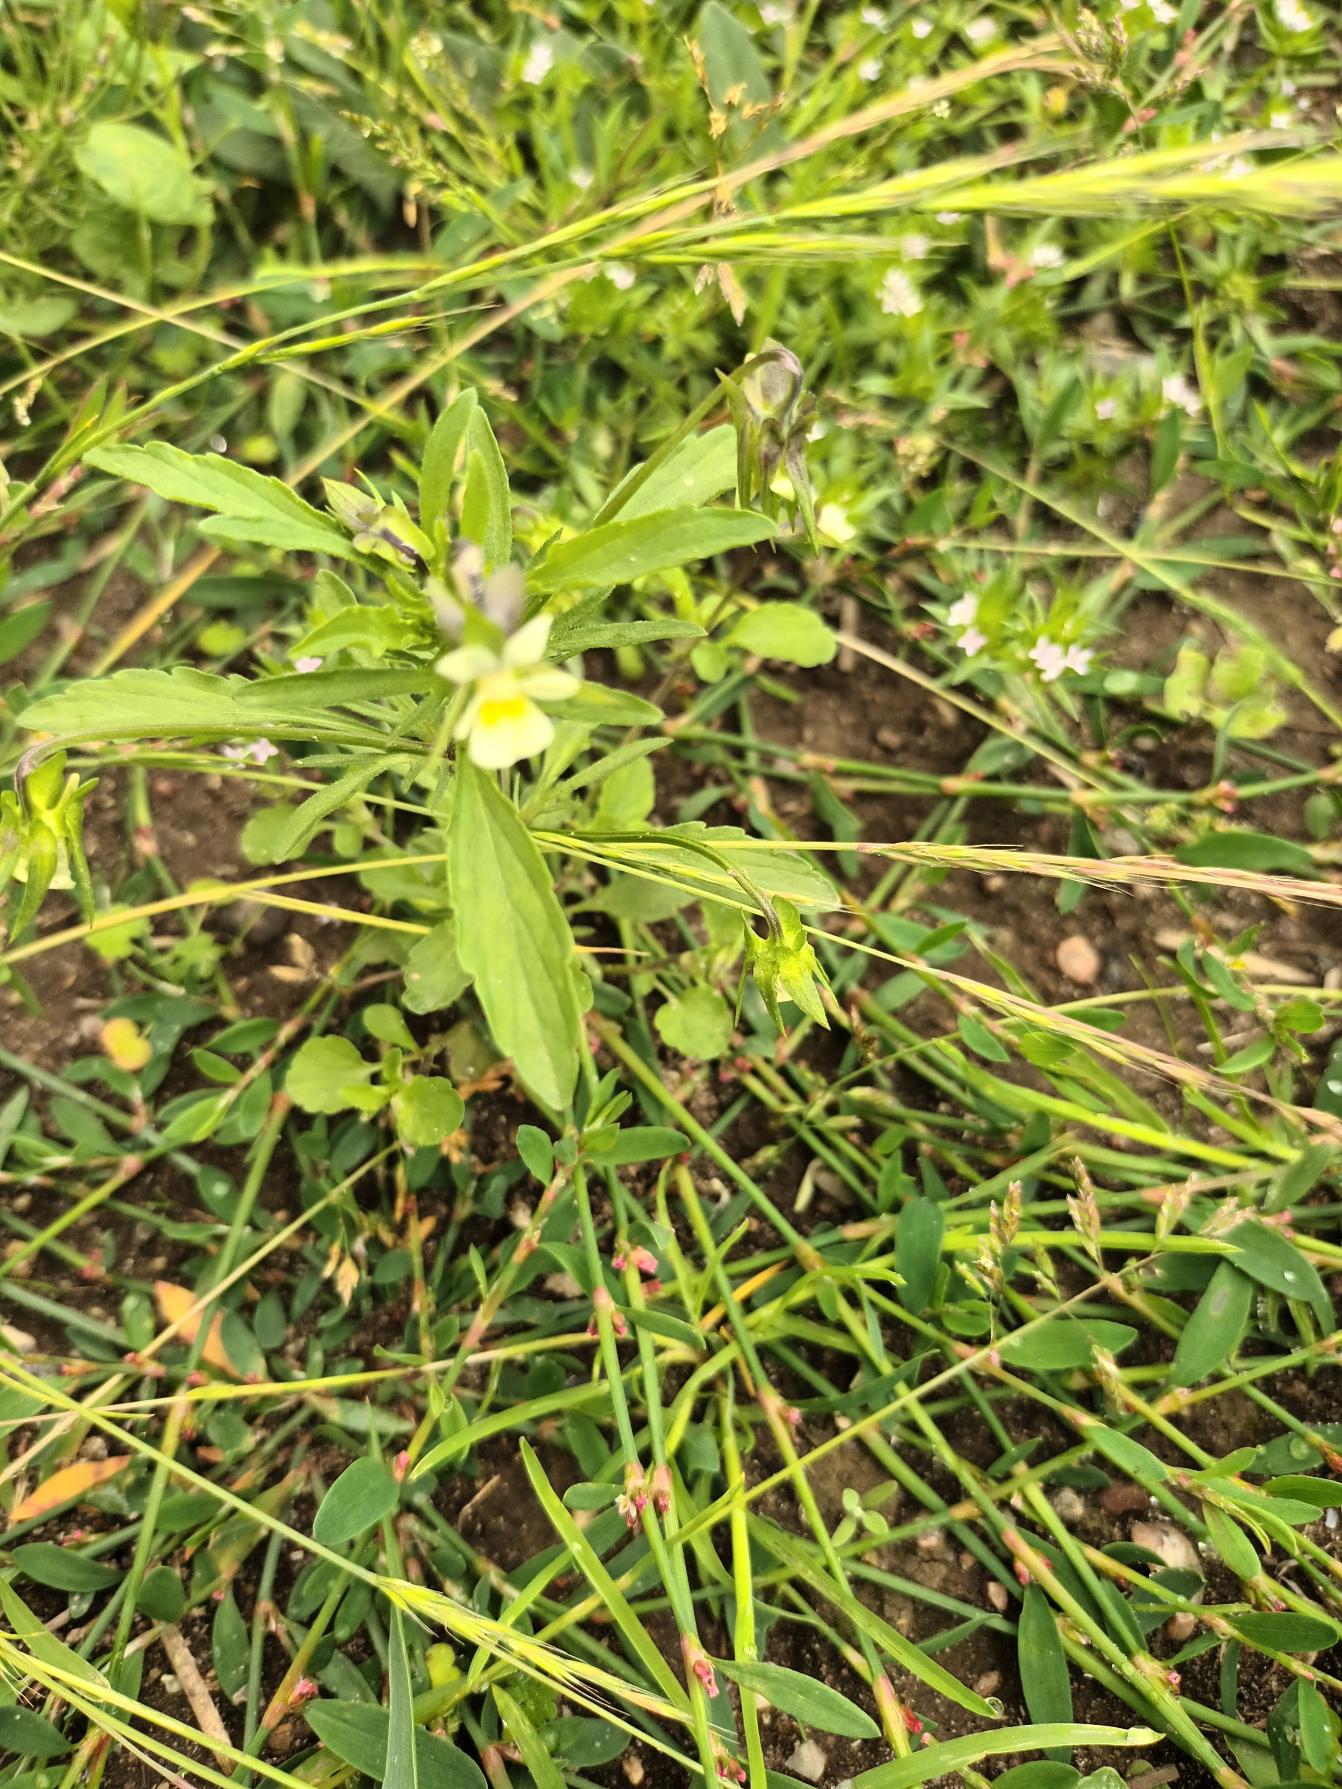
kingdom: Plantae
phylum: Tracheophyta
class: Magnoliopsida
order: Malpighiales
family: Violaceae
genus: Viola
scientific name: Viola arvensis
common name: Ager-stedmoderblomst
